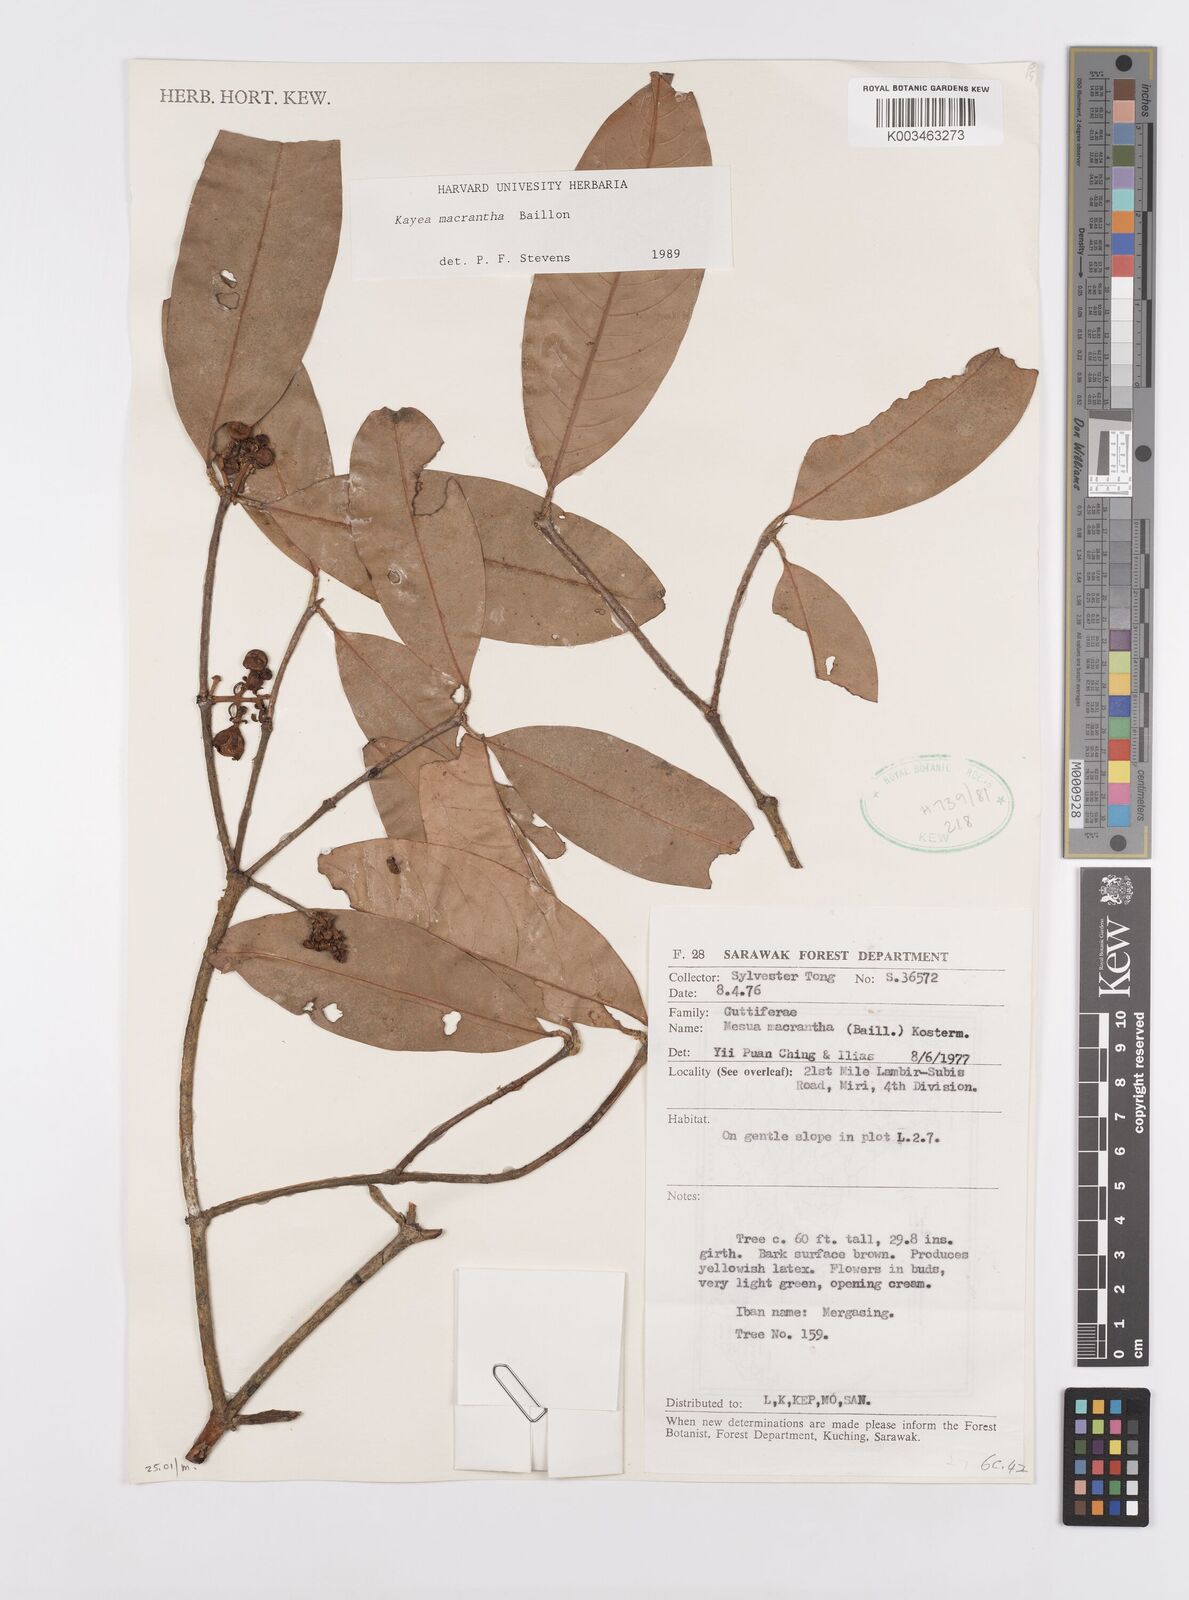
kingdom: Plantae
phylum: Tracheophyta
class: Magnoliopsida
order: Malpighiales
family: Calophyllaceae
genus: Kayea
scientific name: Kayea macrantha
